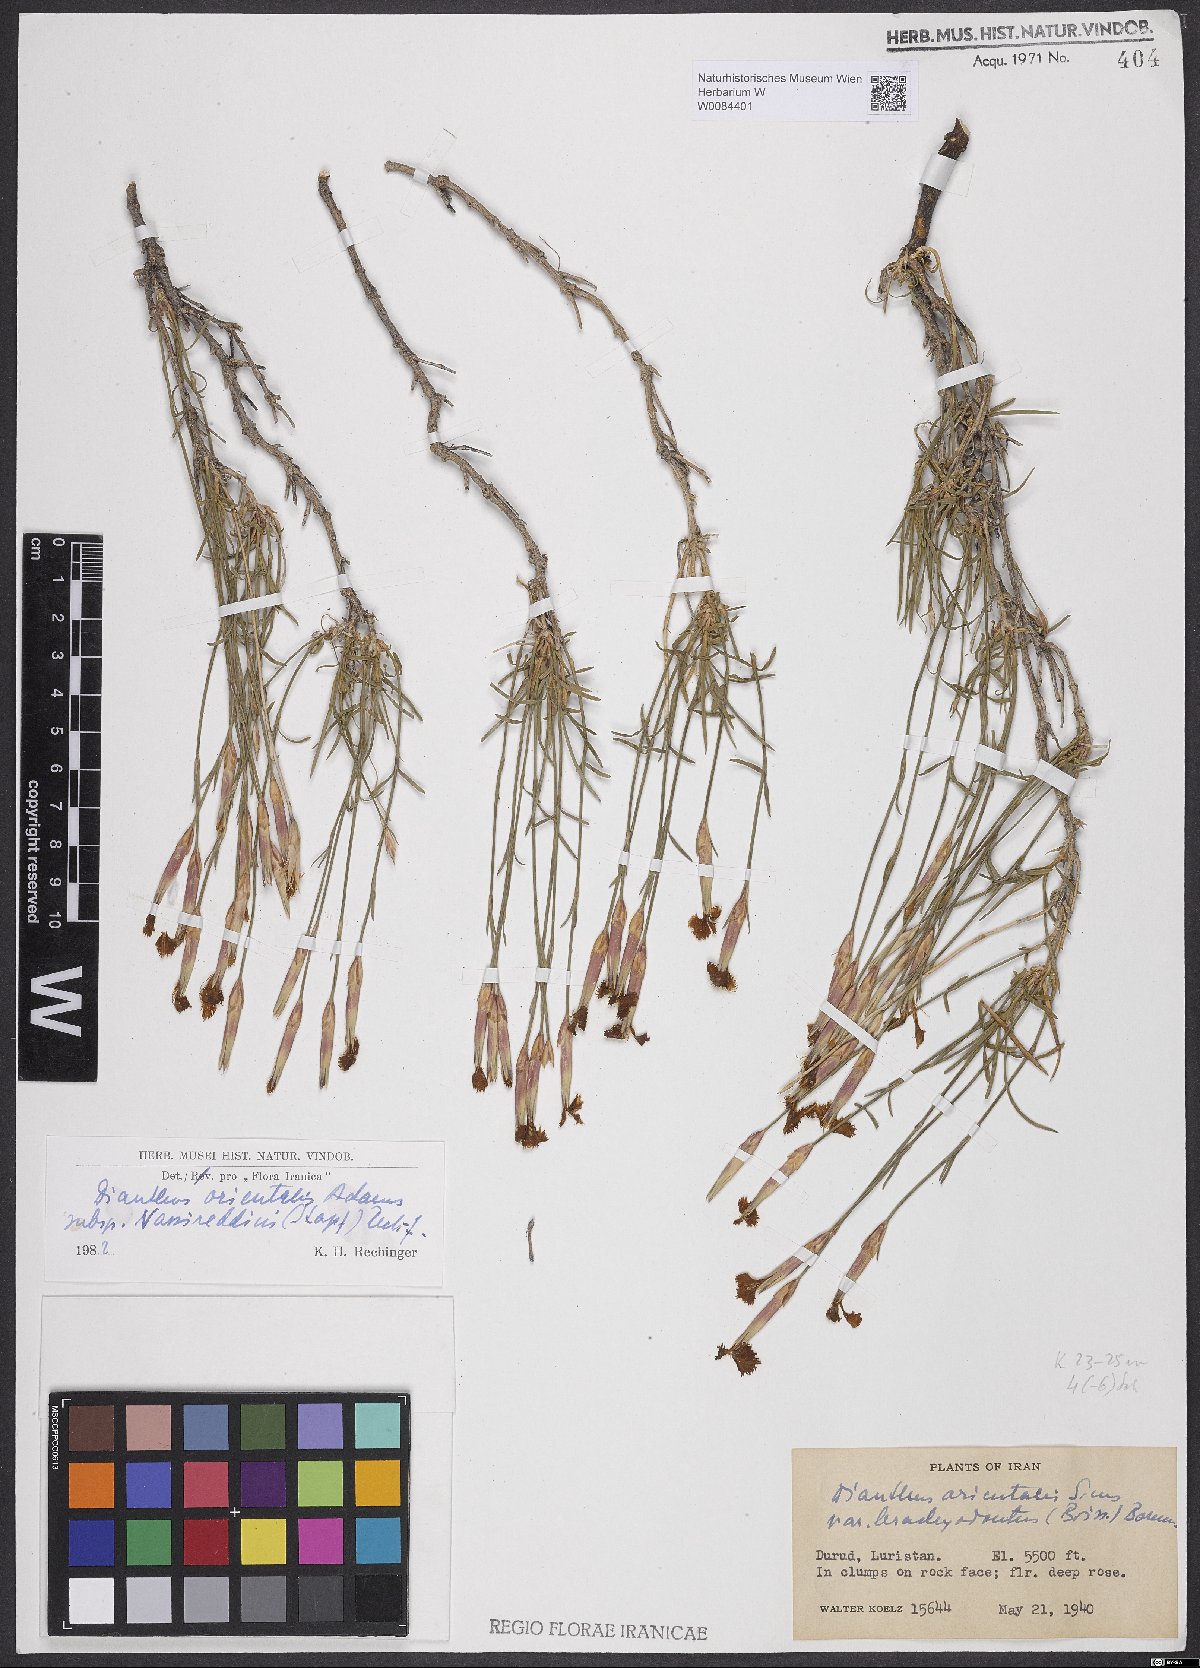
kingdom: Plantae
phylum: Tracheophyta
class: Magnoliopsida
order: Caryophyllales
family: Caryophyllaceae
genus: Dianthus
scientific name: Dianthus orientalis
